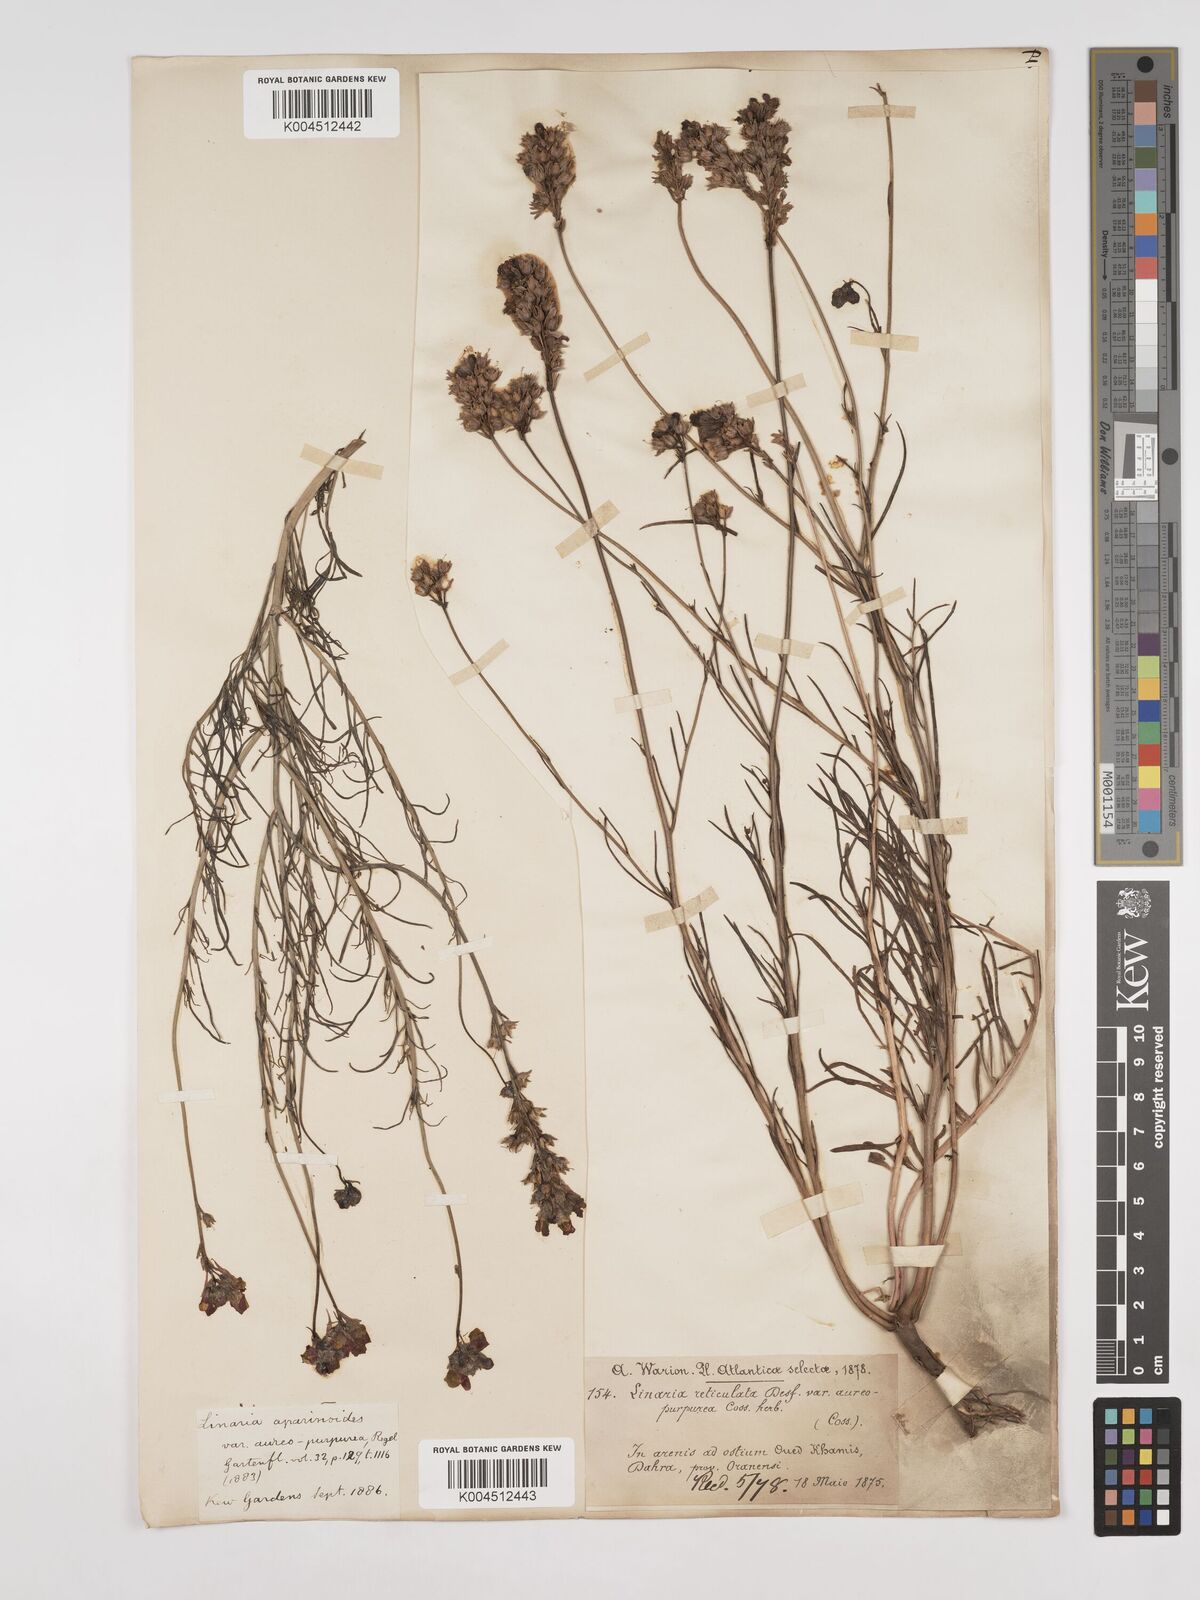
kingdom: Plantae
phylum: Tracheophyta
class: Magnoliopsida
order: Lamiales
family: Plantaginaceae
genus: Linaria
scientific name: Linaria multicaulis
